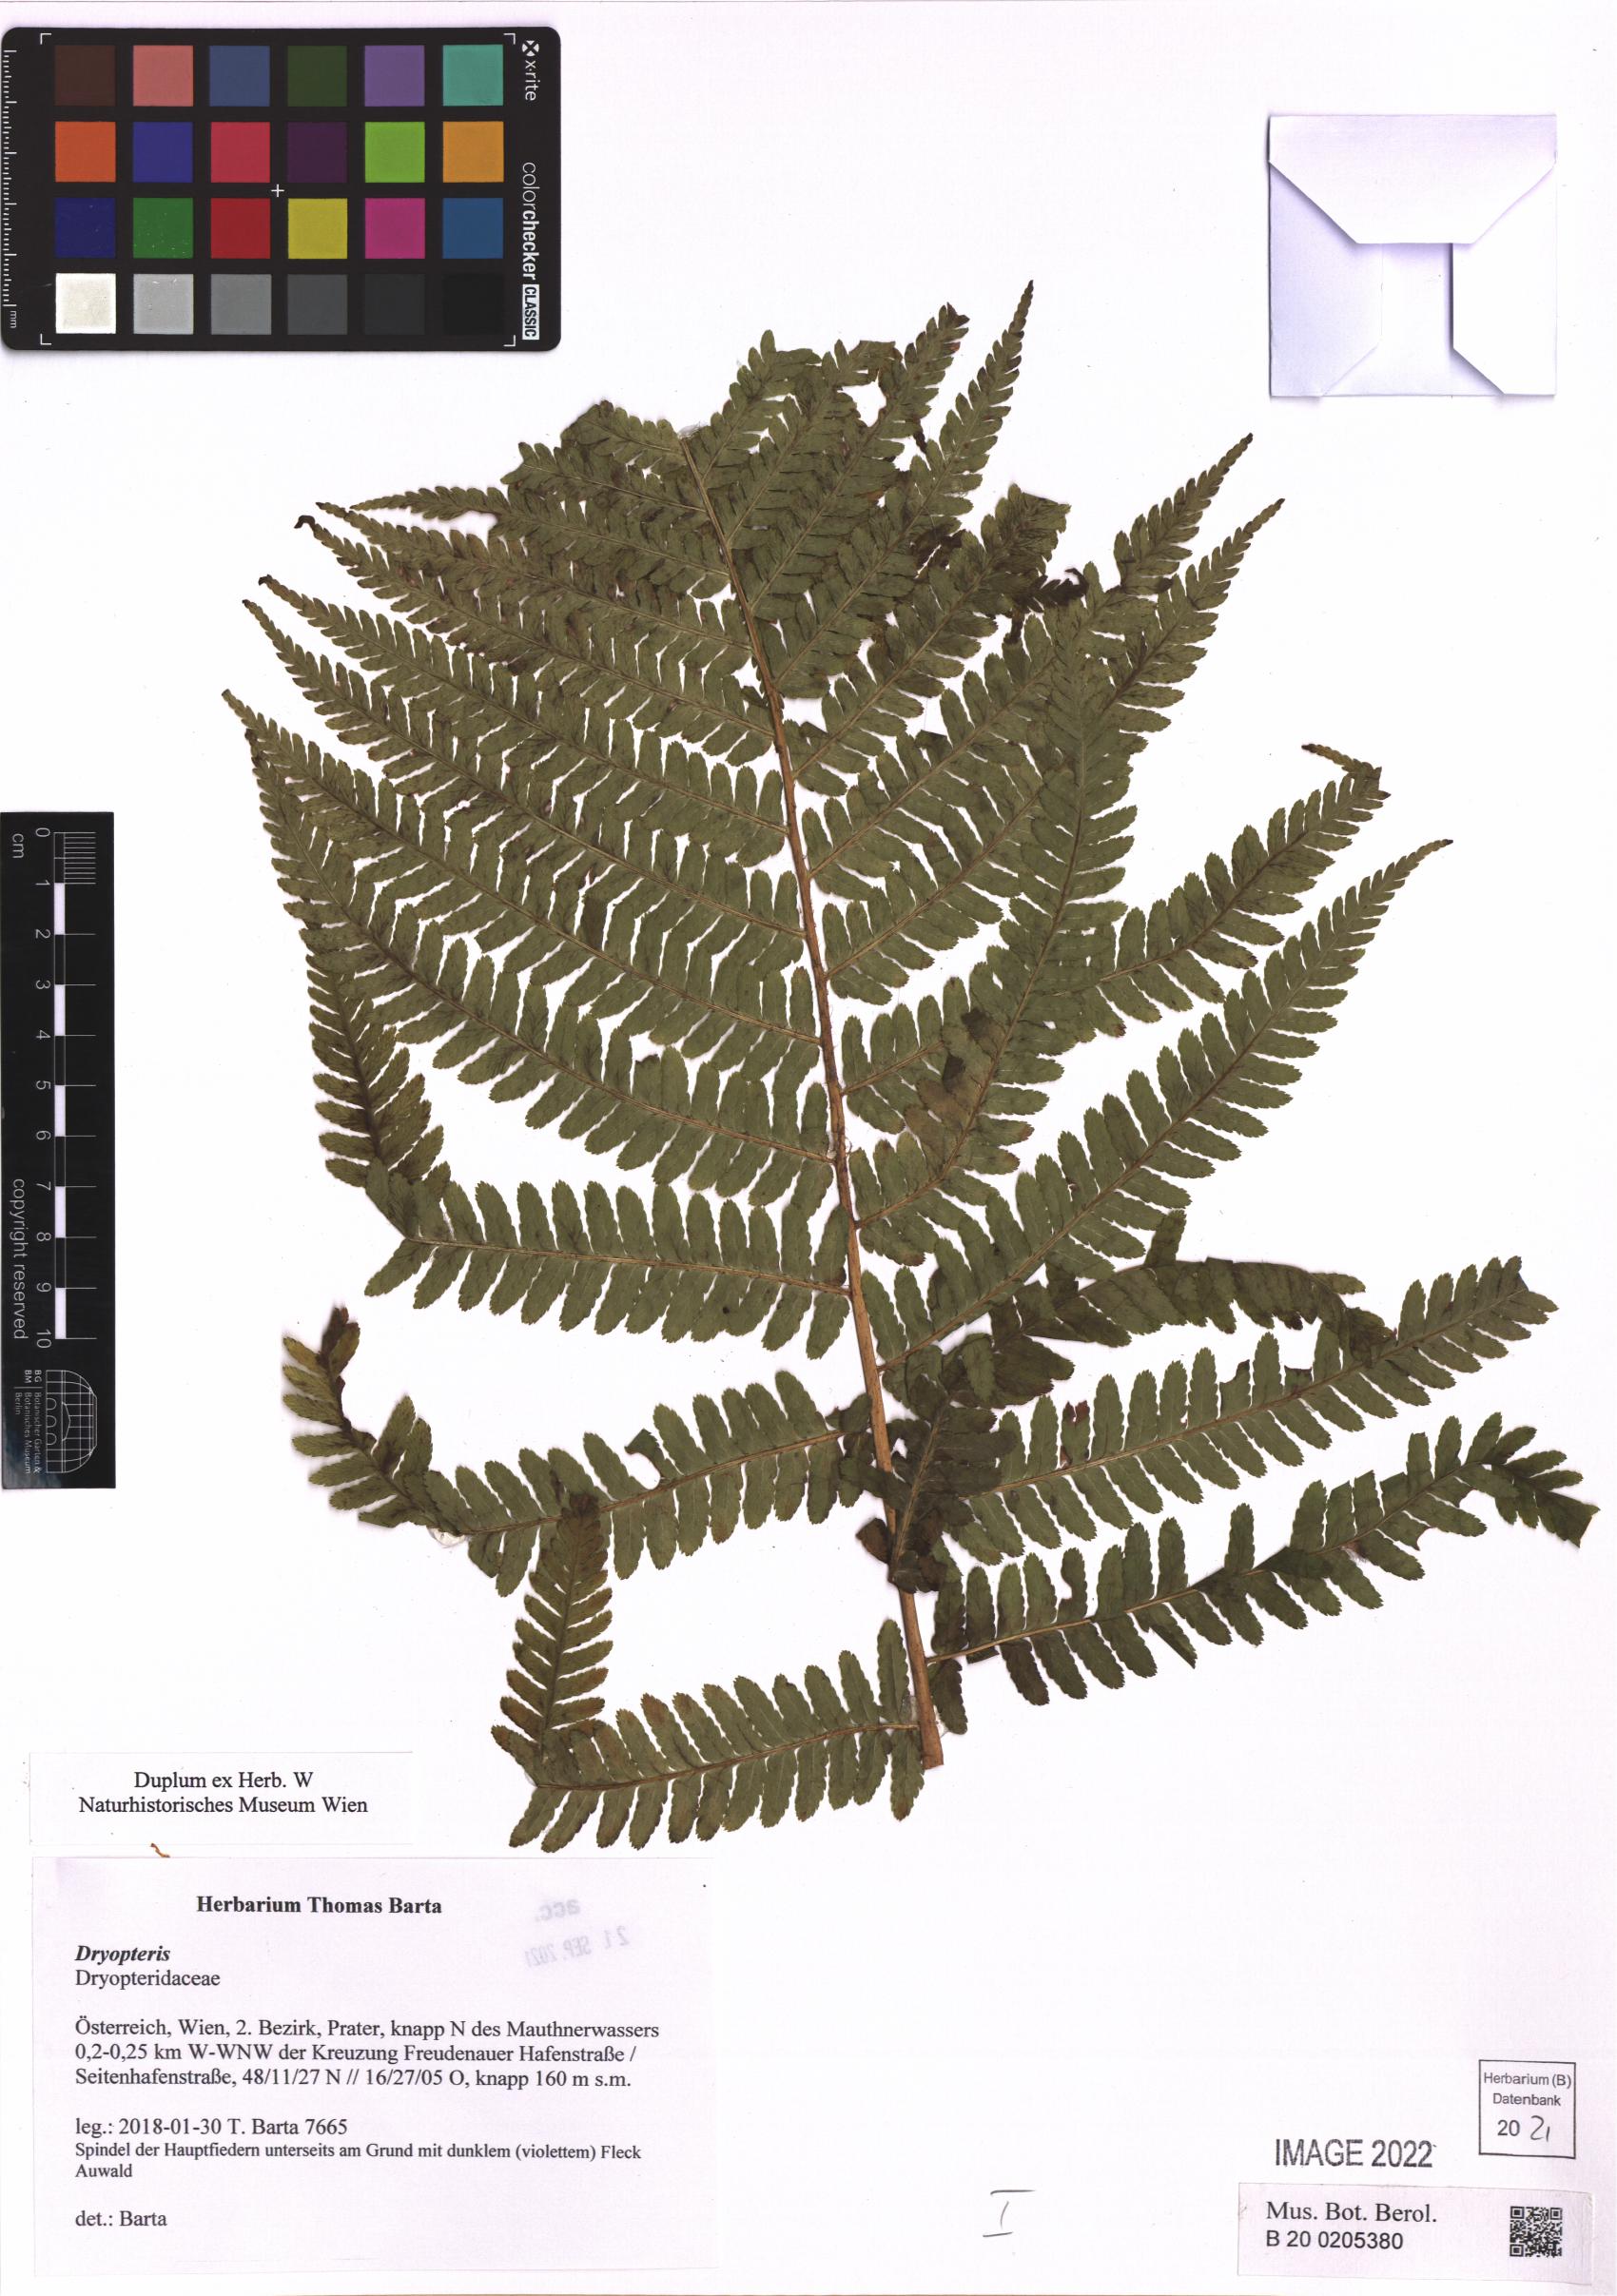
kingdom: Plantae
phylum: Tracheophyta
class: Polypodiopsida
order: Polypodiales
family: Dryopteridaceae
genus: Dryopteris
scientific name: Dryopteris
